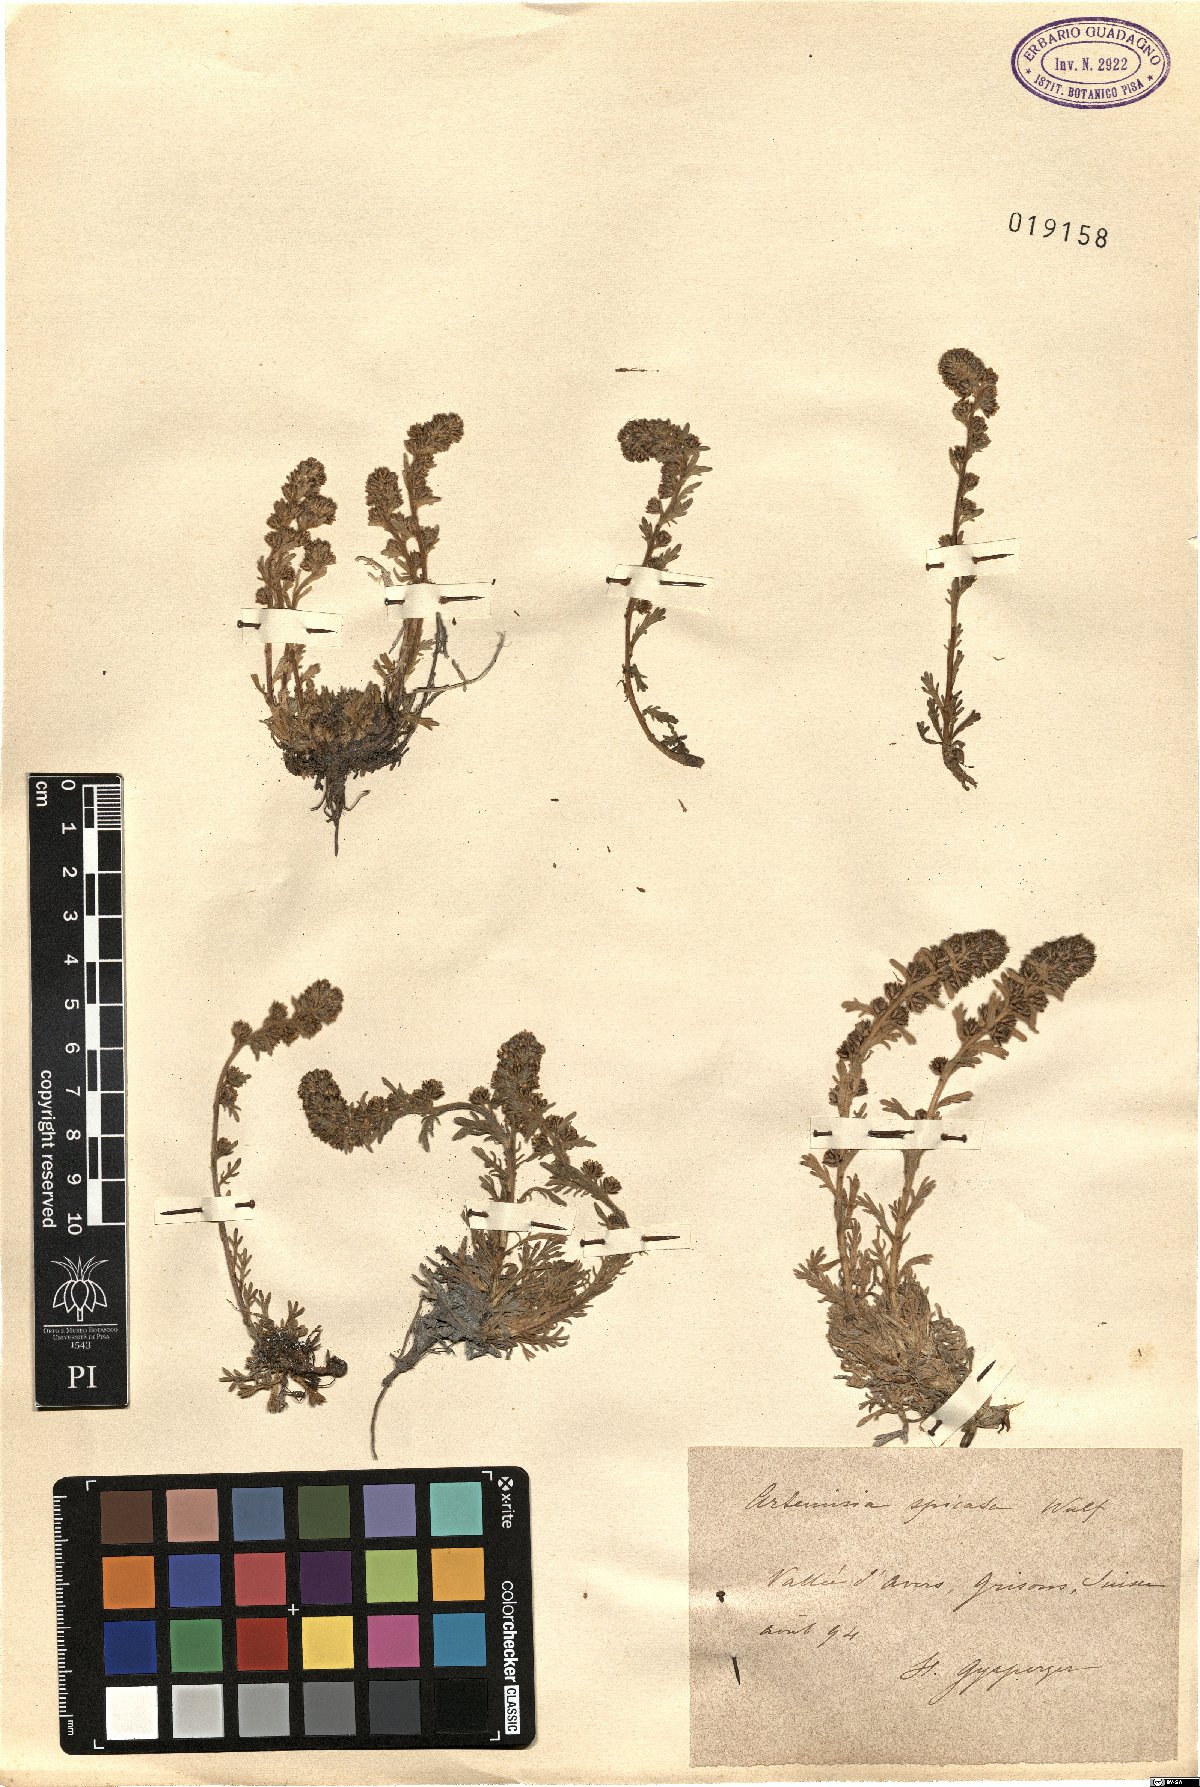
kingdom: Plantae
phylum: Tracheophyta
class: Magnoliopsida
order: Asterales
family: Asteraceae
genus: Artemisia
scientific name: Artemisia genipi
